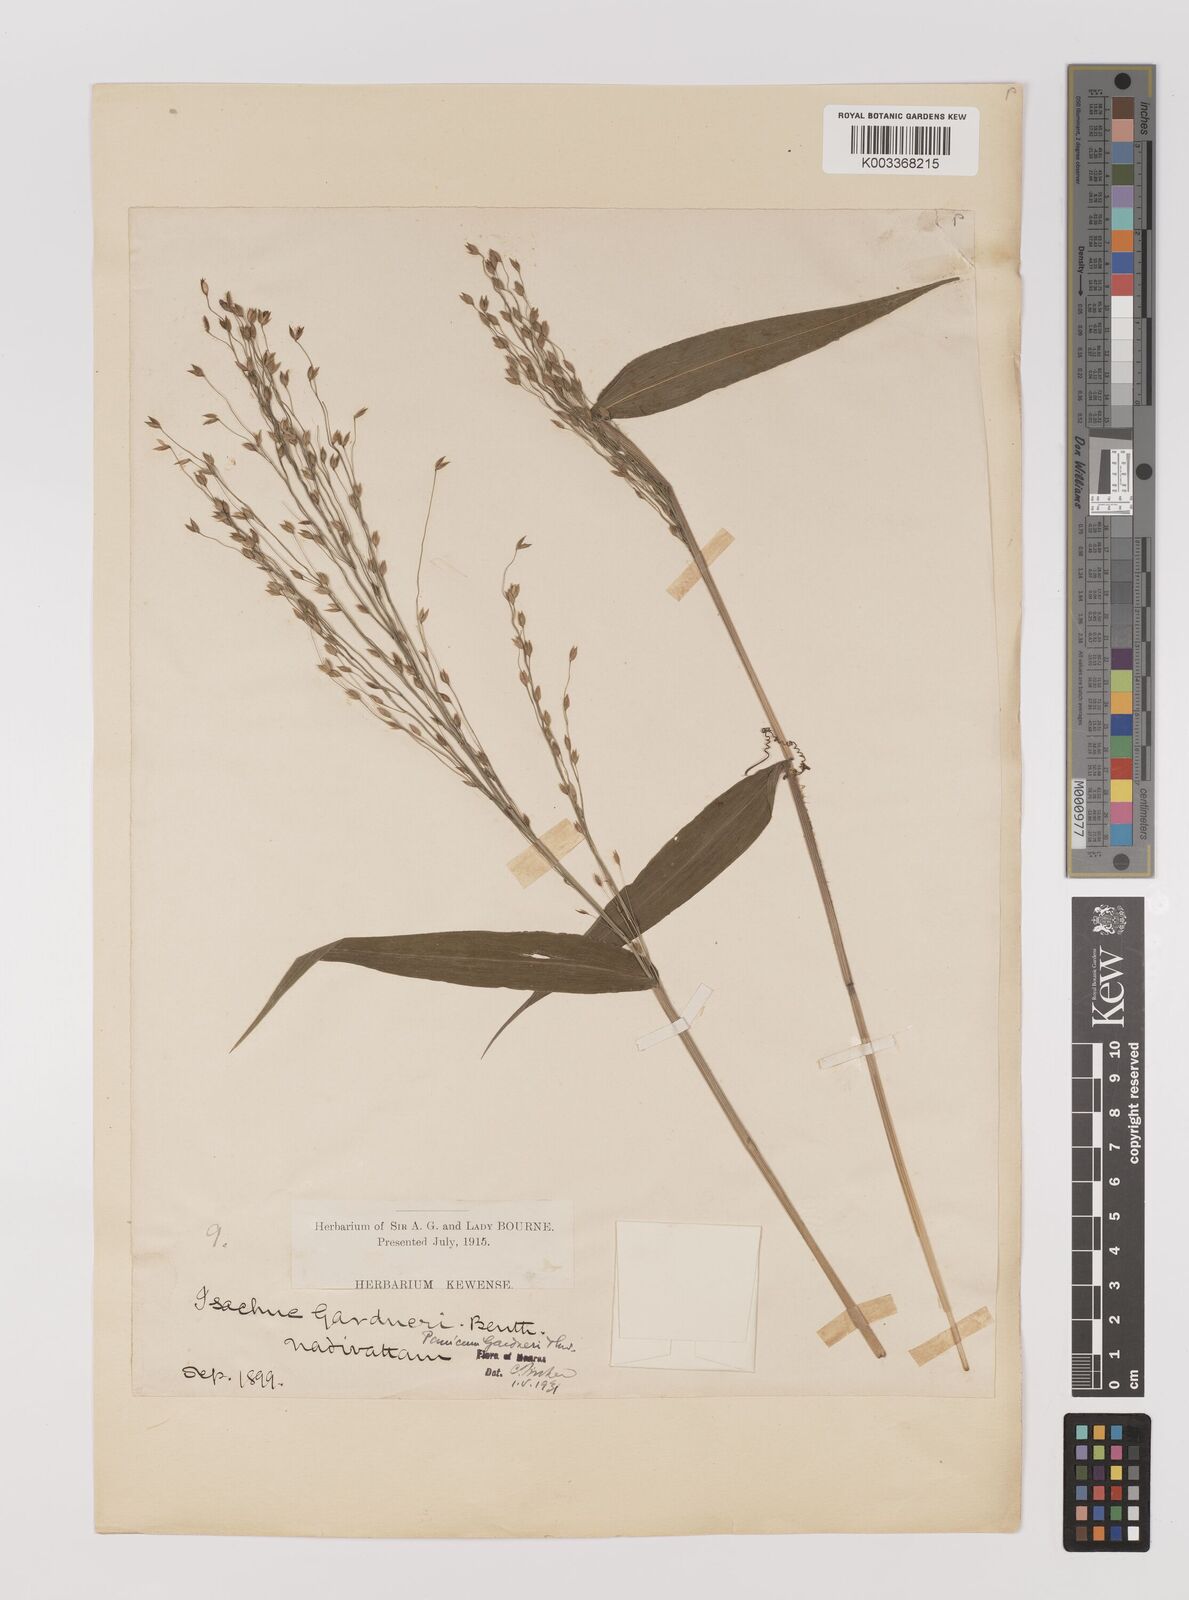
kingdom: Plantae
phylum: Tracheophyta
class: Liliopsida
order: Poales
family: Poaceae
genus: Panicum
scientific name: Panicum gardneri
